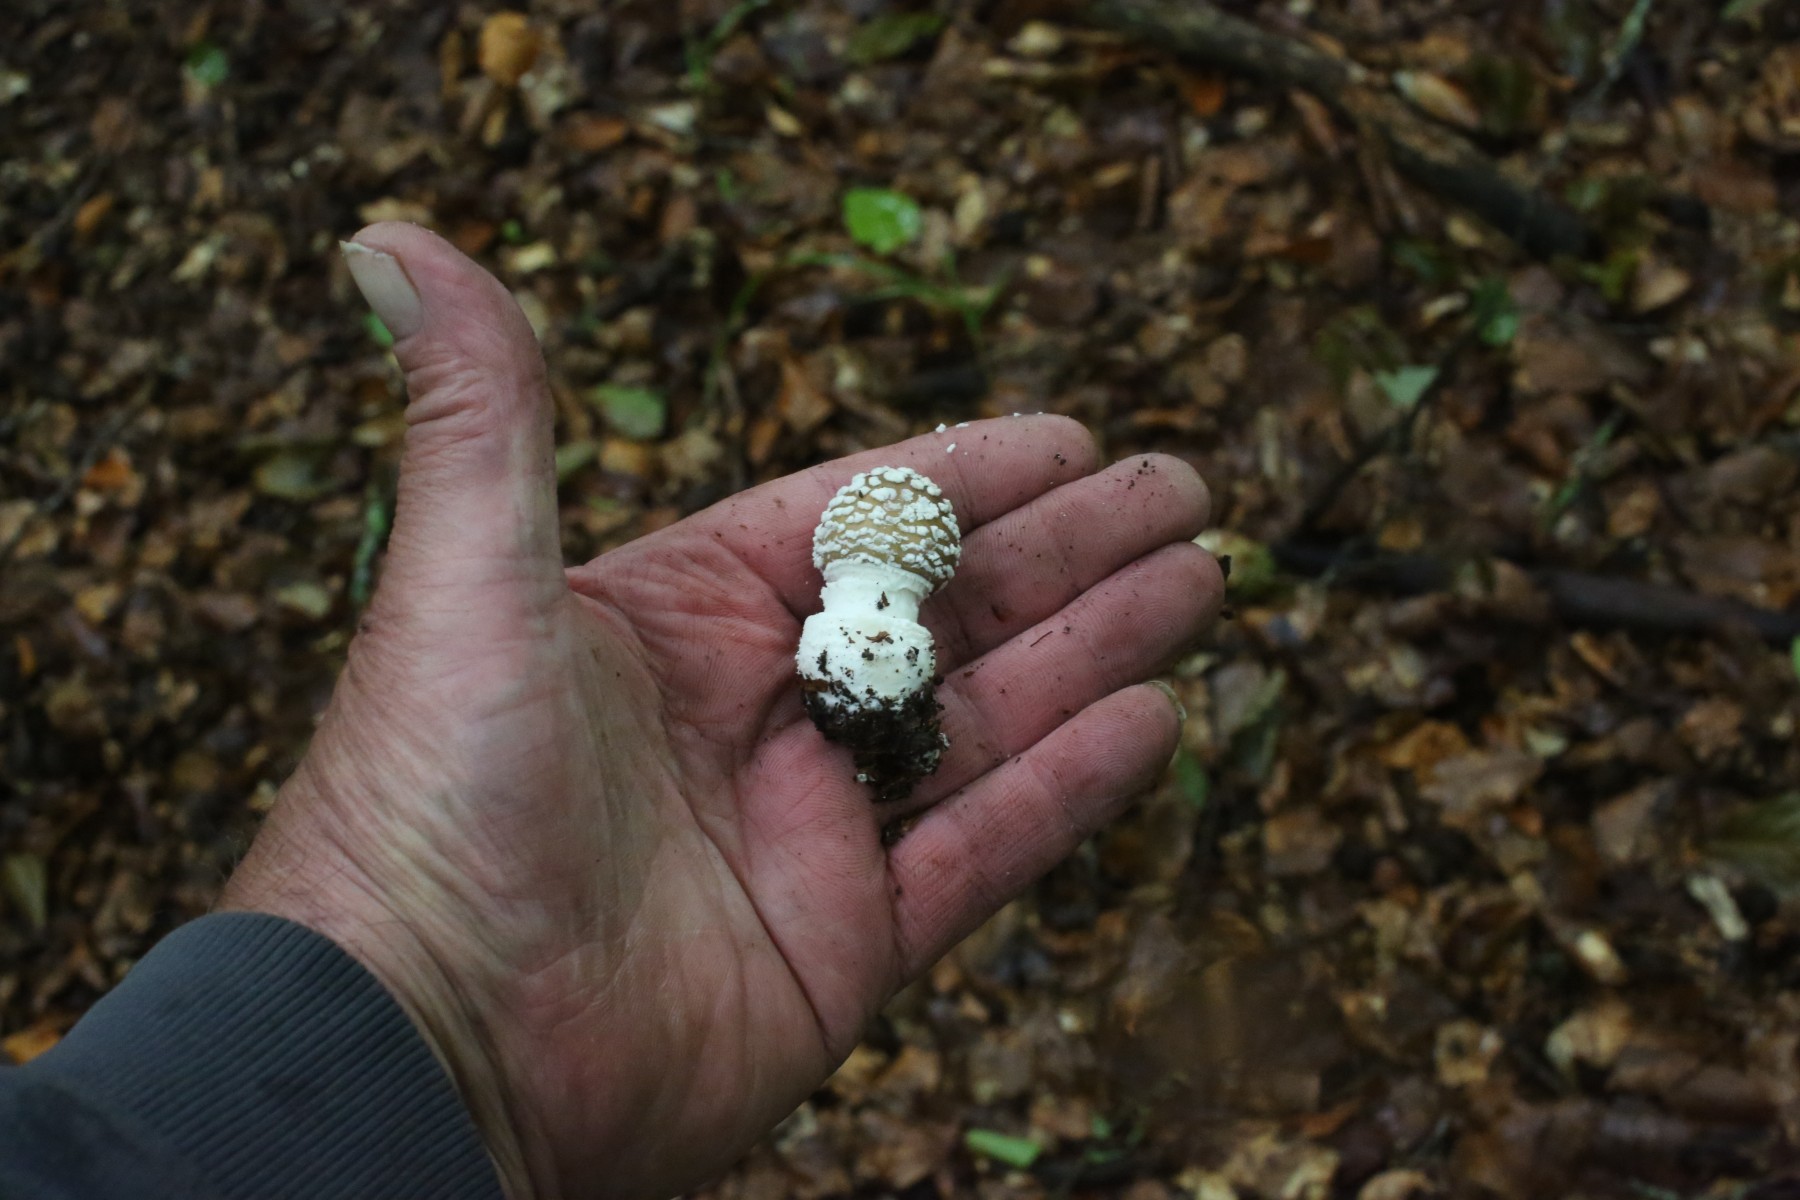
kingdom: Fungi
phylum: Basidiomycota
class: Agaricomycetes
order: Agaricales
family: Amanitaceae
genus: Amanita
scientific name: Amanita pantherina
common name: panter-fluesvamp
